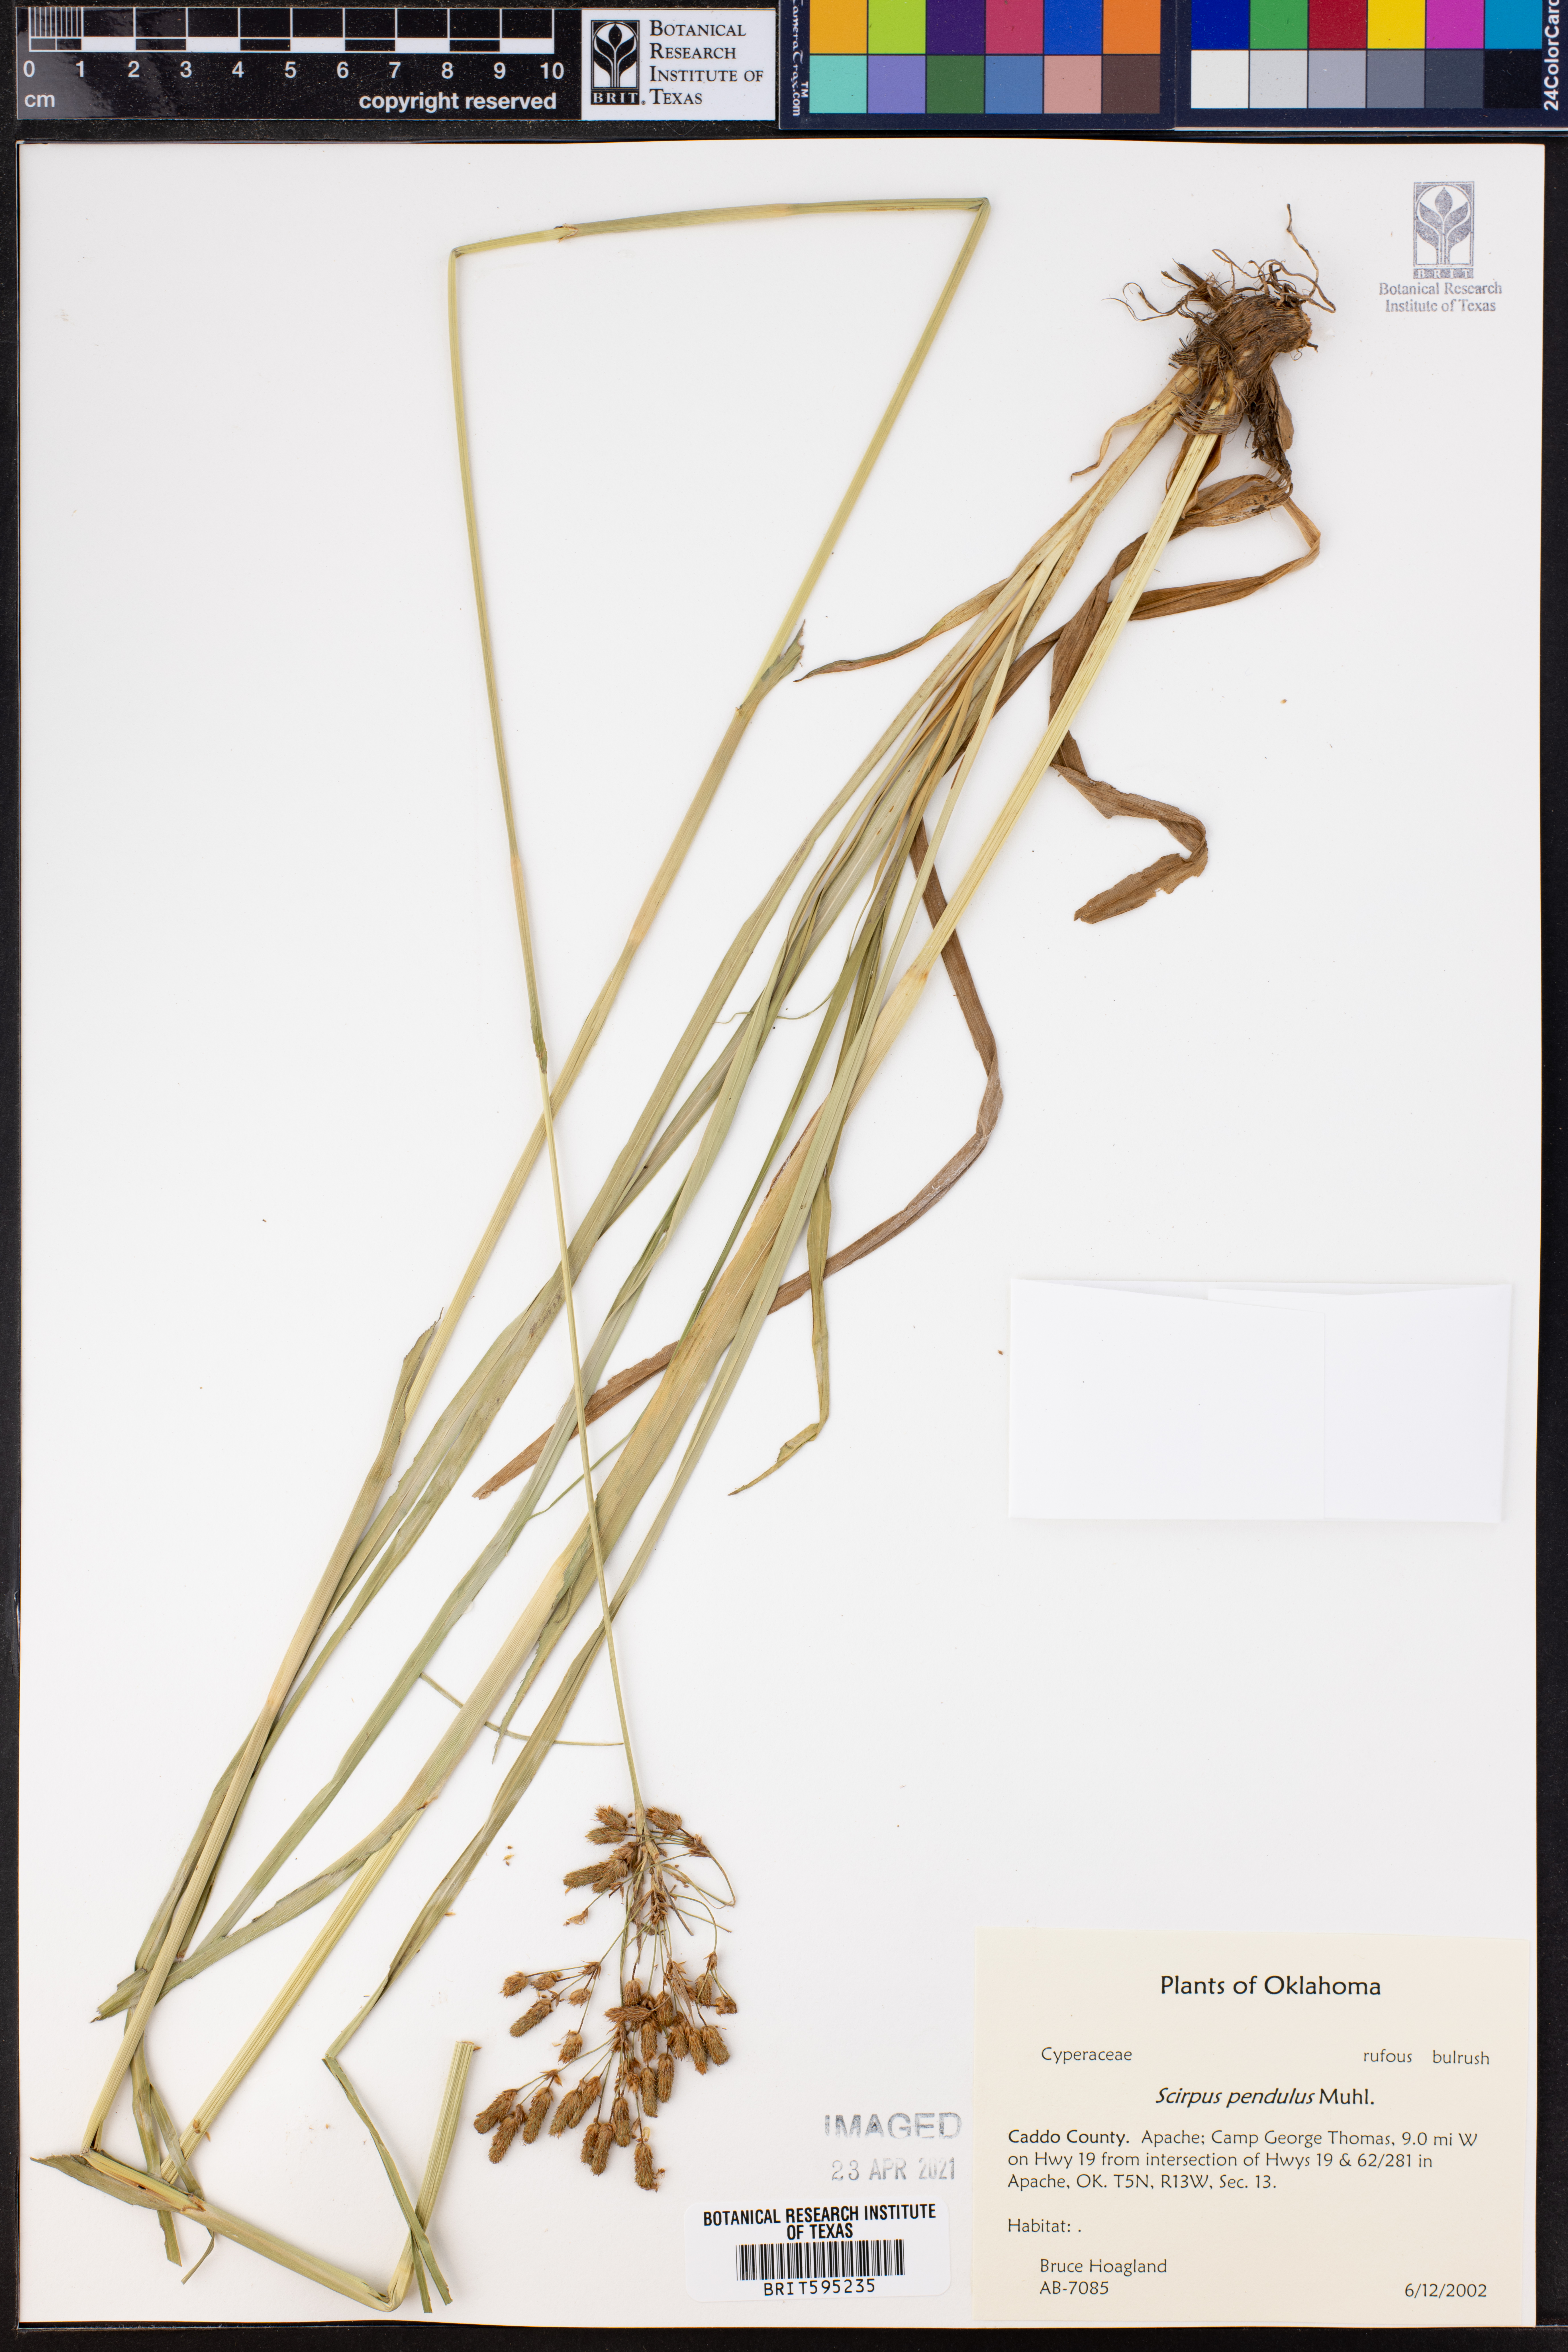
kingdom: Plantae
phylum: Tracheophyta
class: Liliopsida
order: Poales
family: Cyperaceae
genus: Scirpus
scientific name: Scirpus pendulus
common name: Nodding bulrush
